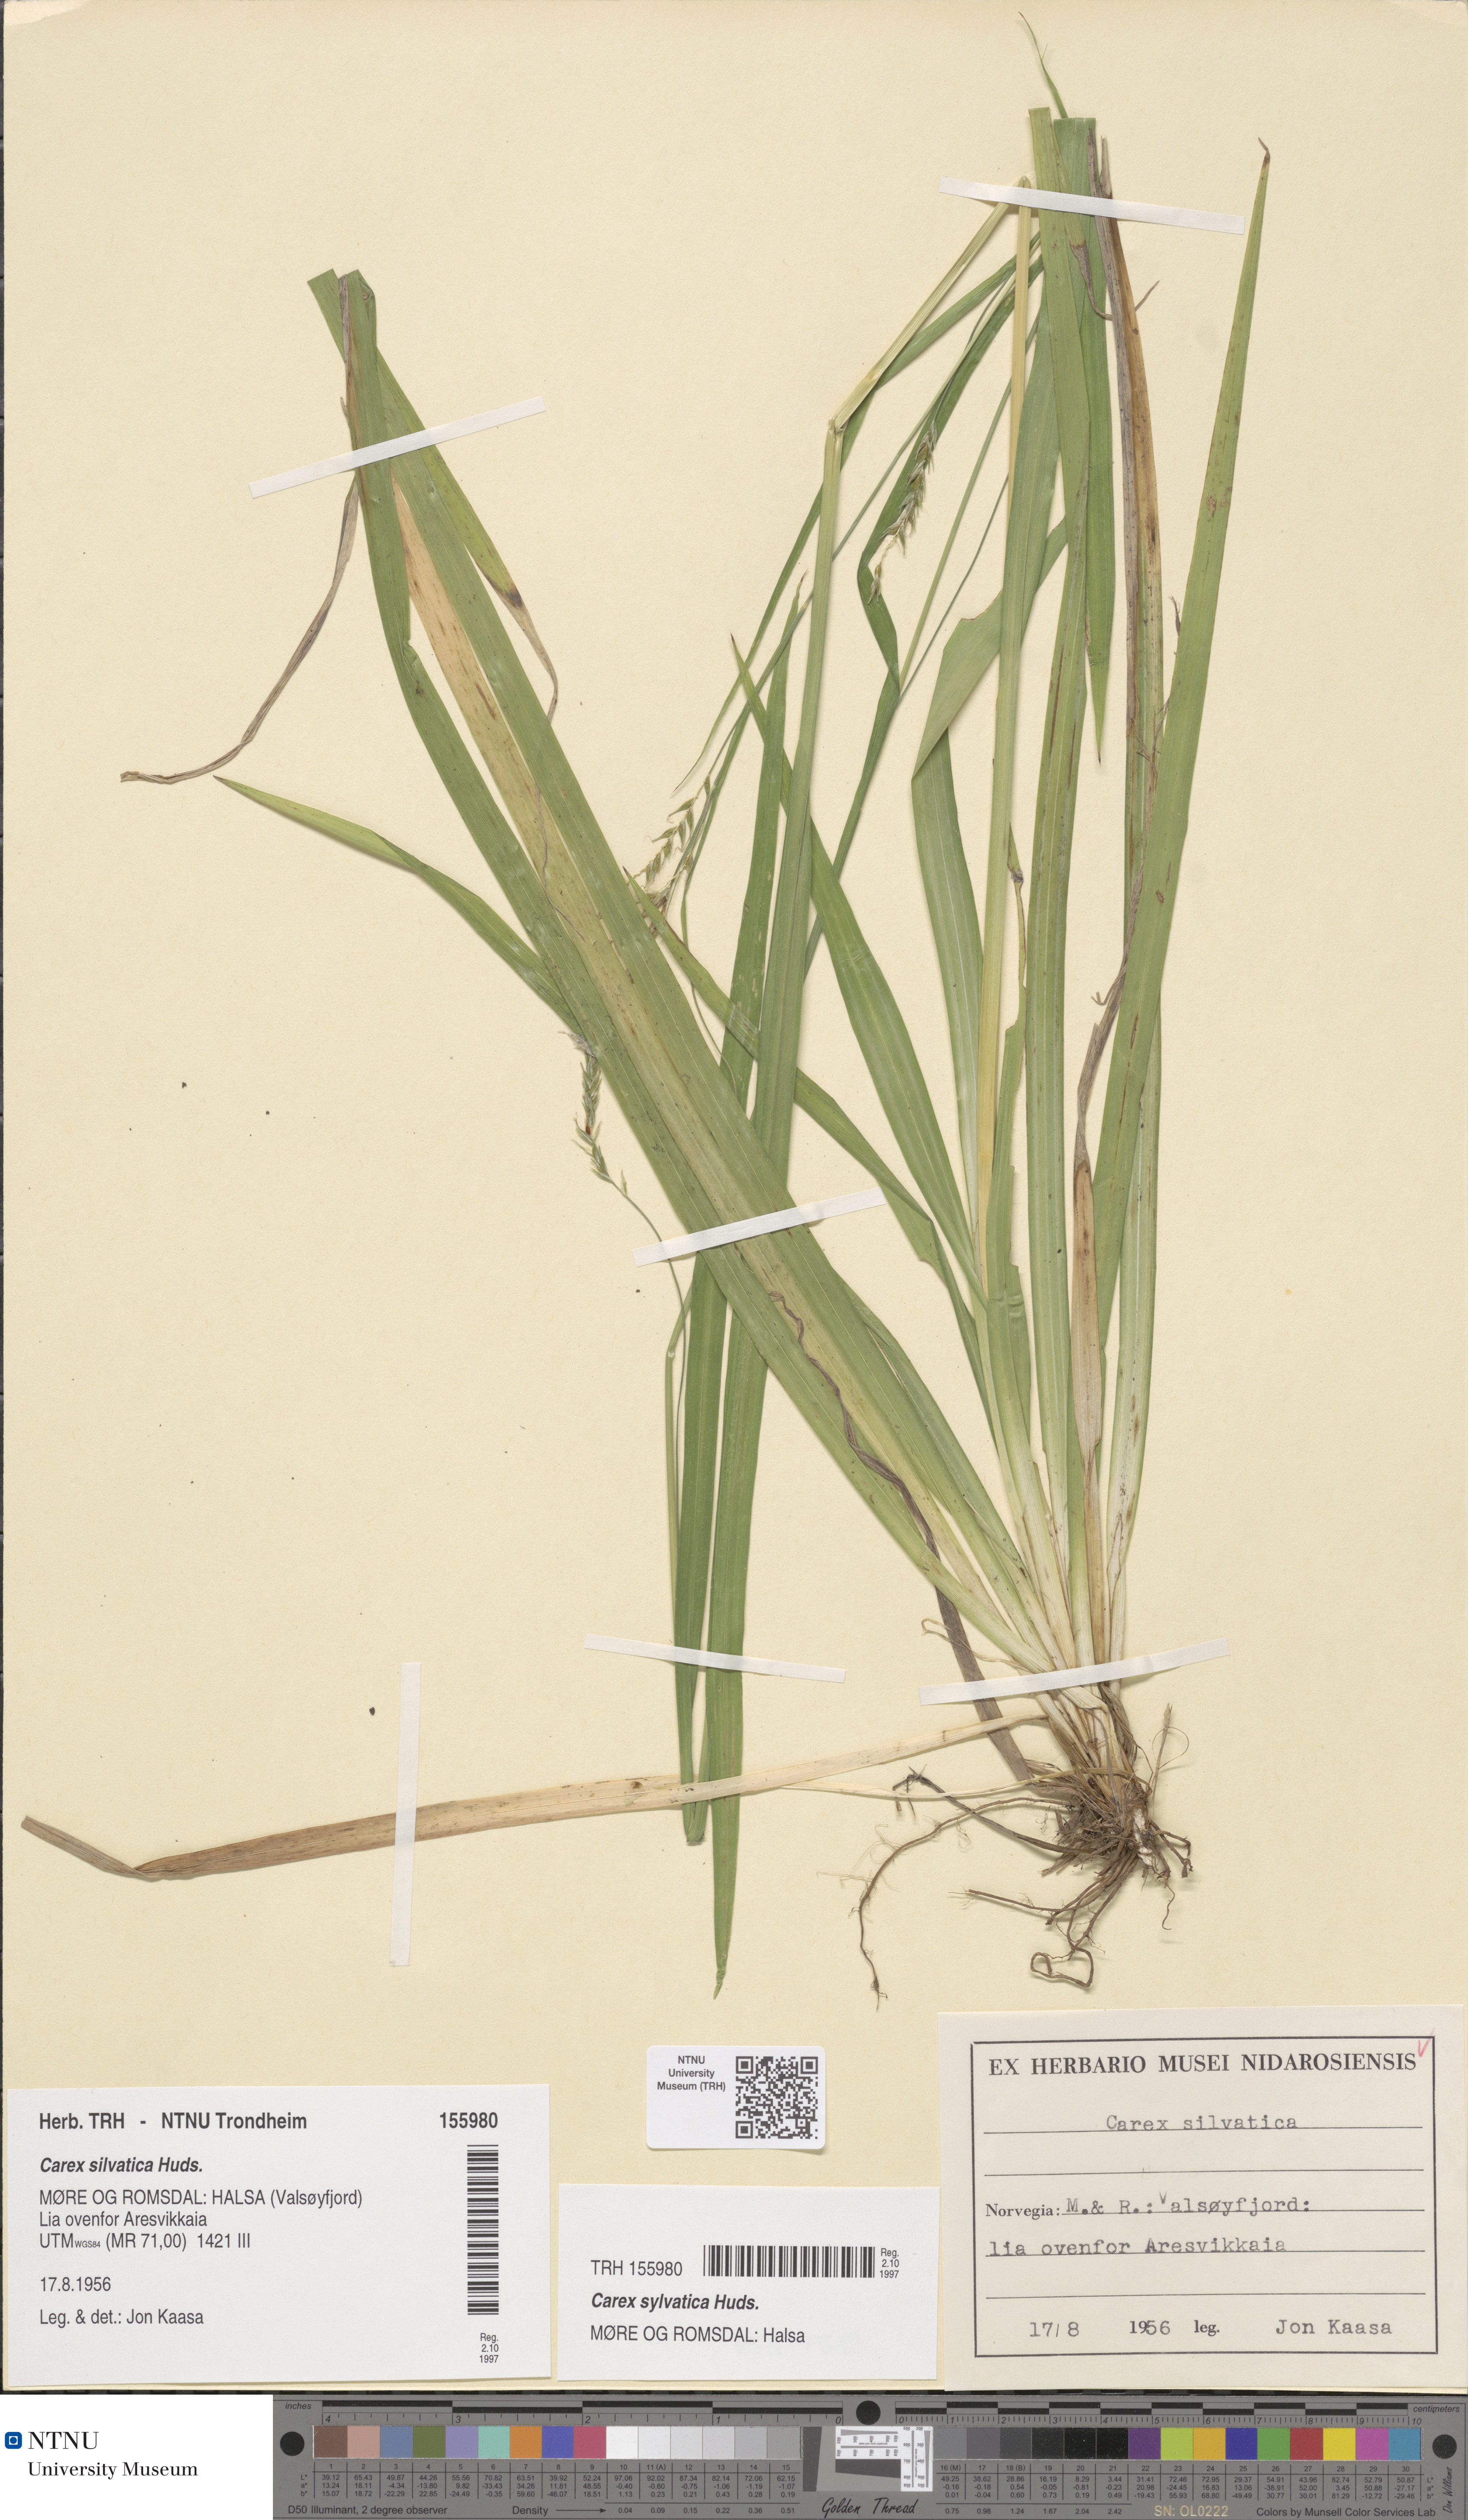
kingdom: Plantae
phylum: Tracheophyta
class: Liliopsida
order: Poales
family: Cyperaceae
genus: Carex
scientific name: Carex sylvatica
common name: Wood-sedge
